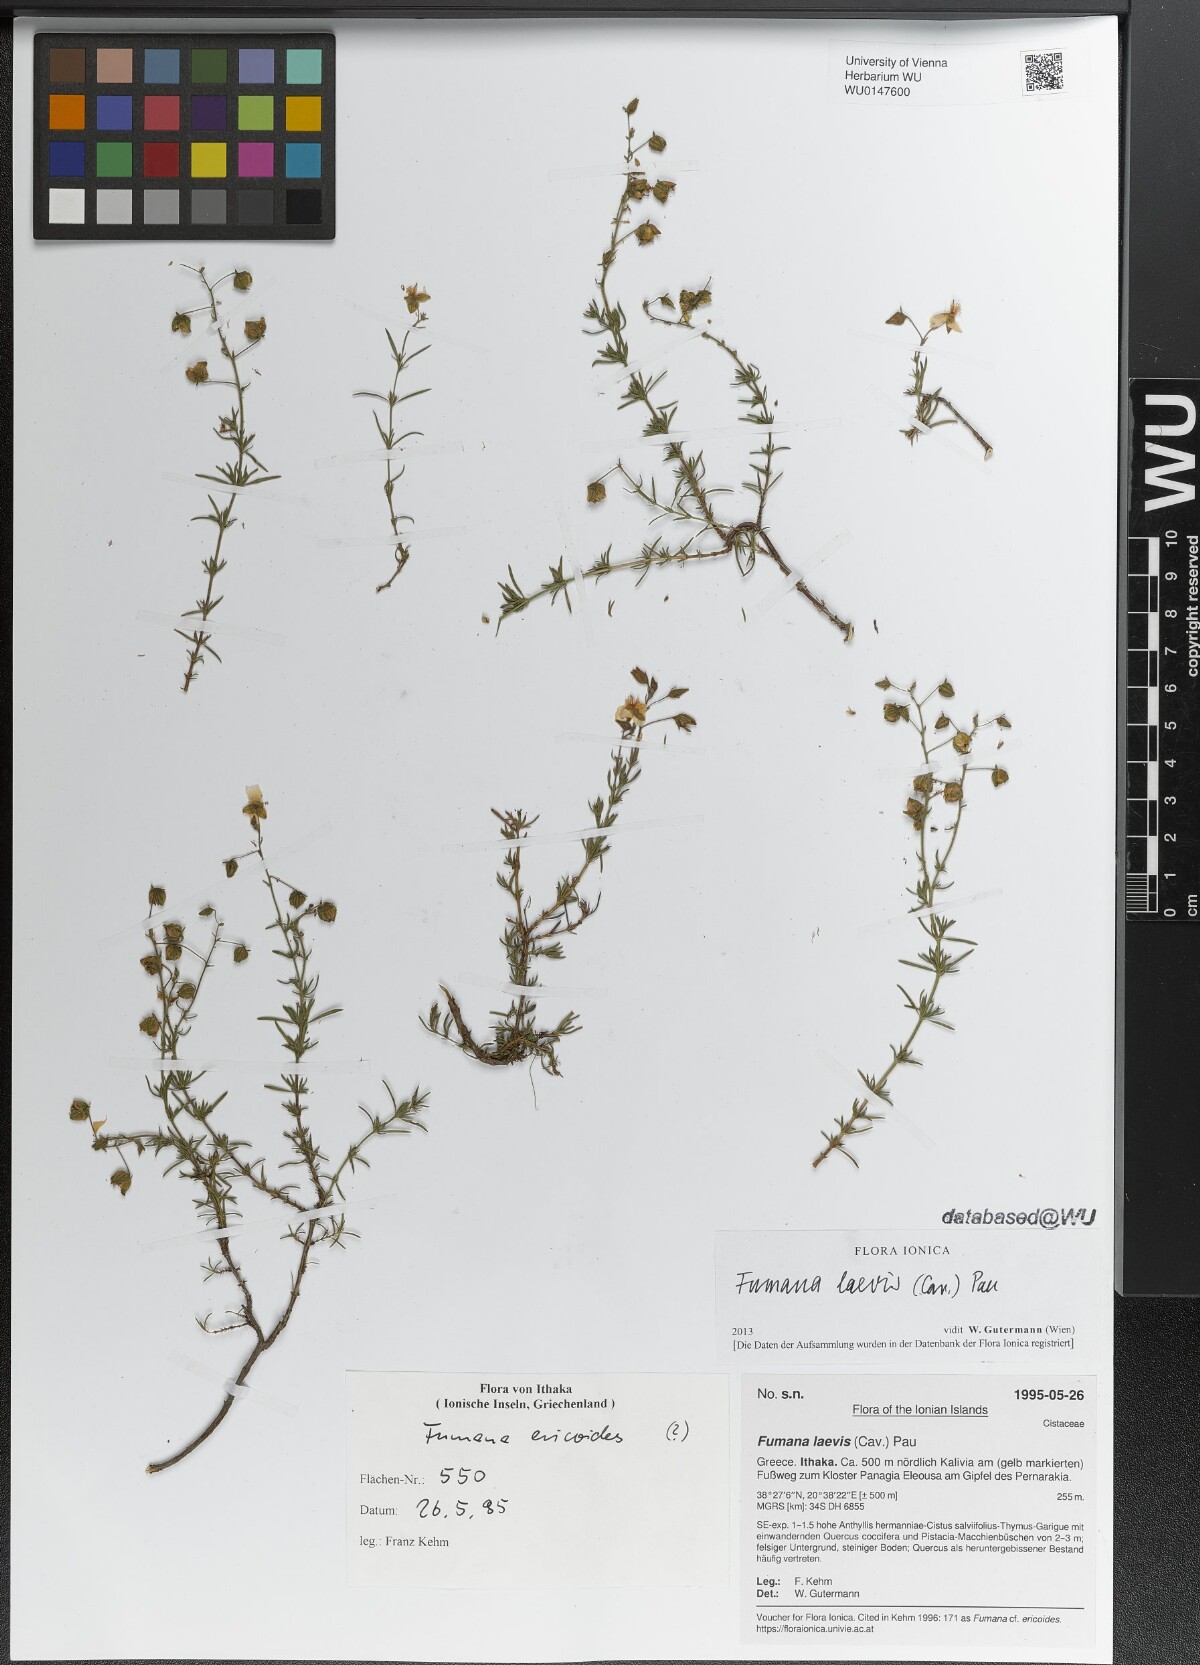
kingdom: Plantae
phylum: Tracheophyta
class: Magnoliopsida
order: Malvales
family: Cistaceae
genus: Fumana
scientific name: Fumana laevis
